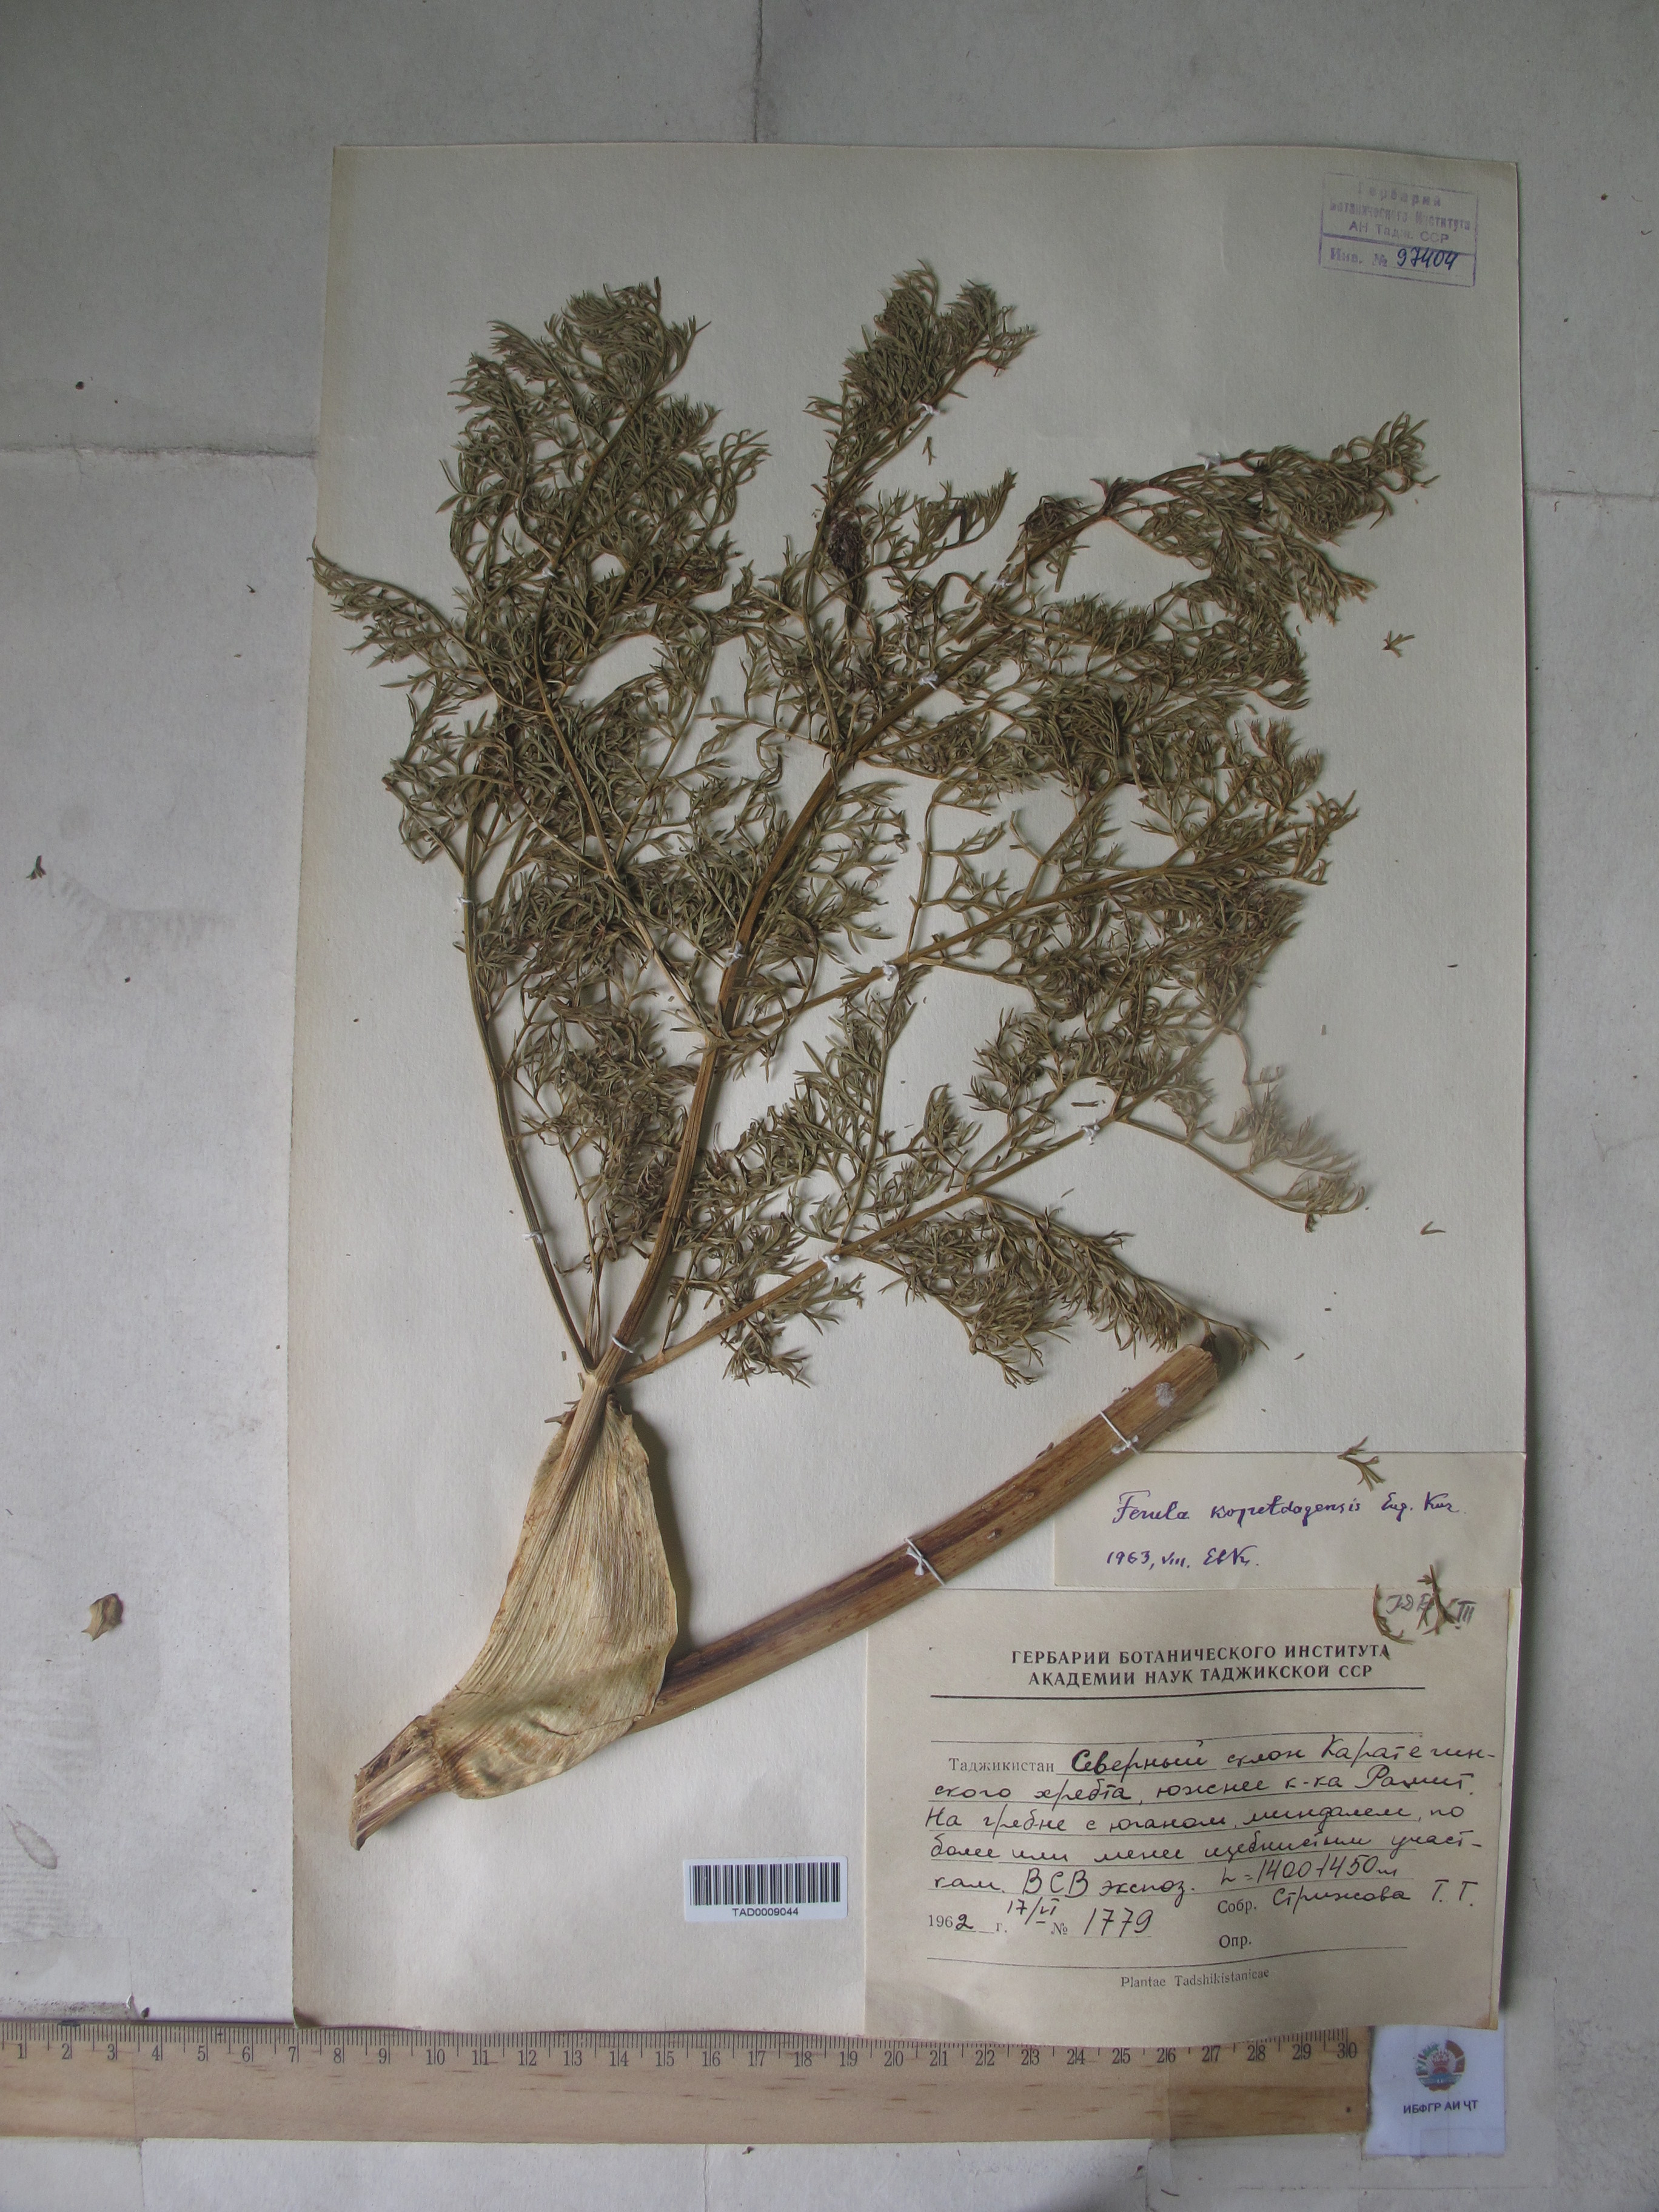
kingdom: Plantae
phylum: Tracheophyta
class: Magnoliopsida
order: Apiales
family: Apiaceae
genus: Ferula
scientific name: Ferula ovina
